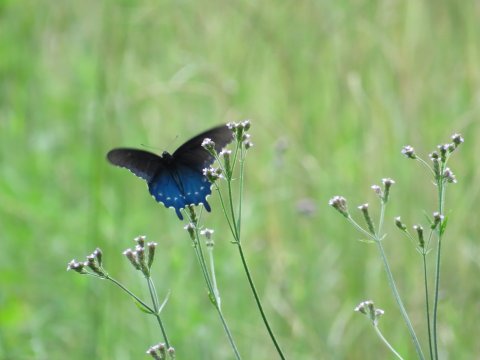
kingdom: Animalia
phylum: Arthropoda
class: Insecta
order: Lepidoptera
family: Papilionidae
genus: Battus
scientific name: Battus philenor
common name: Pipevine Swallowtail
